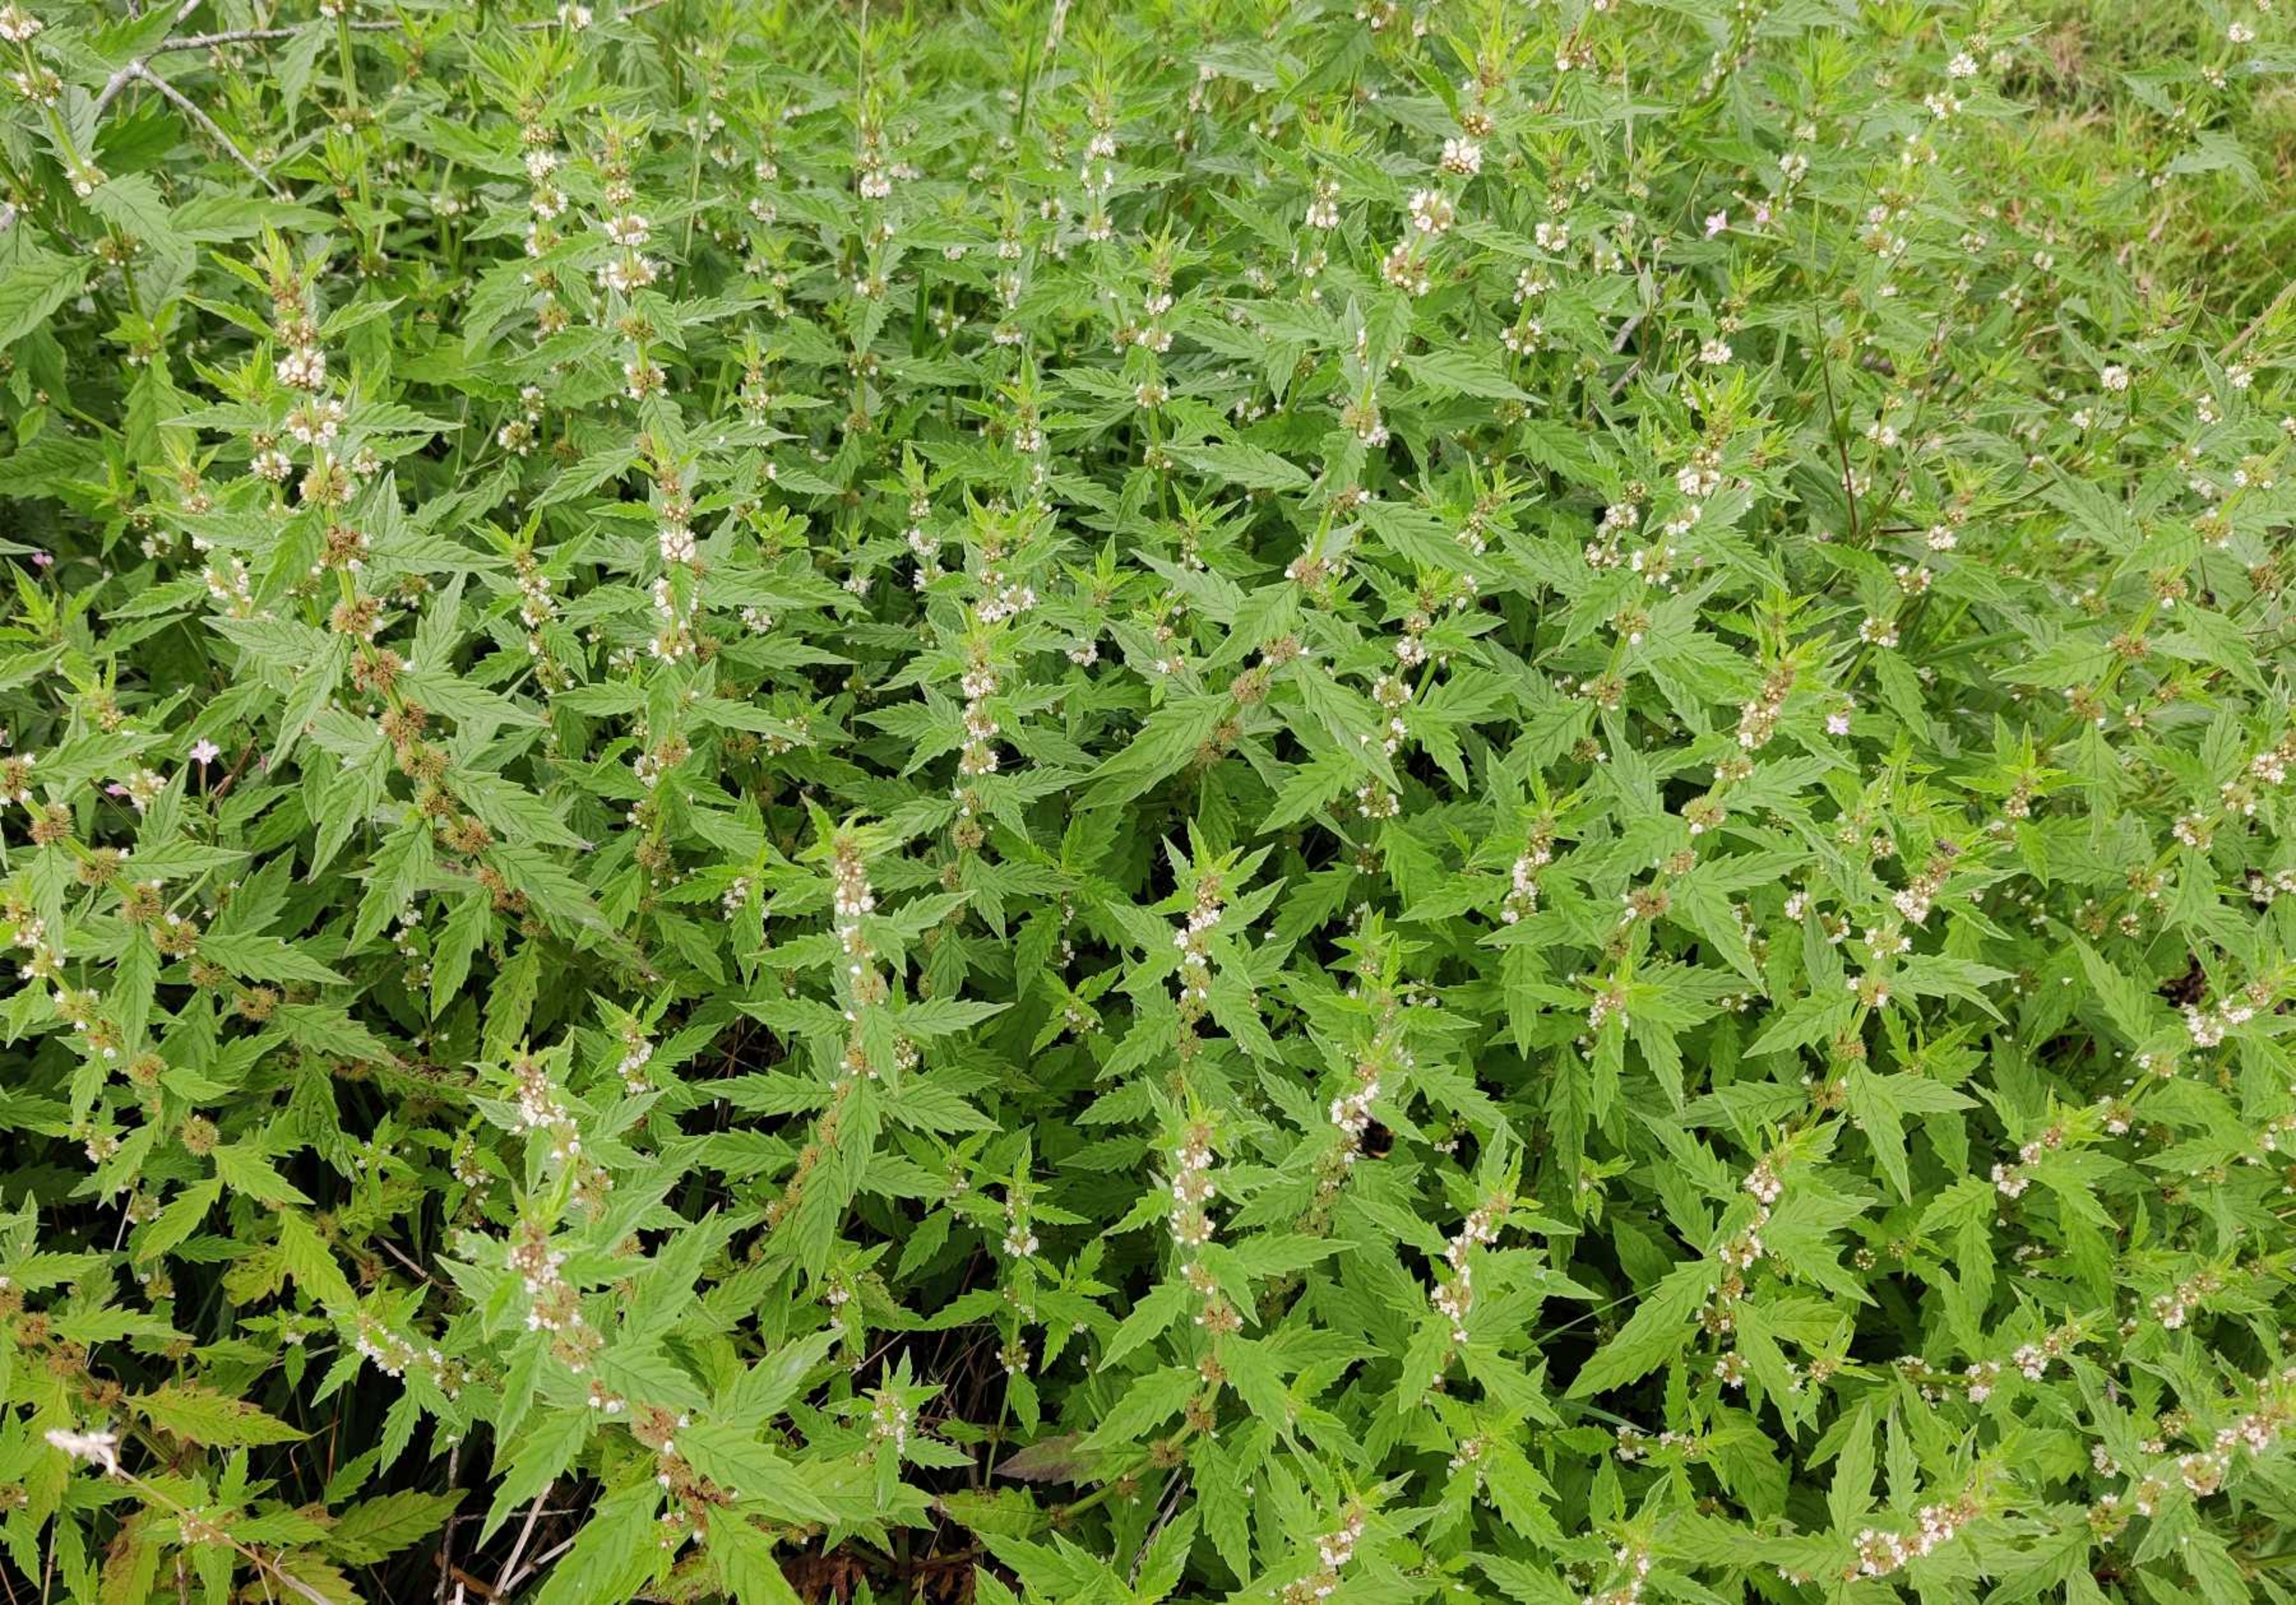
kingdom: Plantae
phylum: Tracheophyta
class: Magnoliopsida
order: Lamiales
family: Lamiaceae
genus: Lycopus
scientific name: Lycopus europaeus
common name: Sværtevæld
